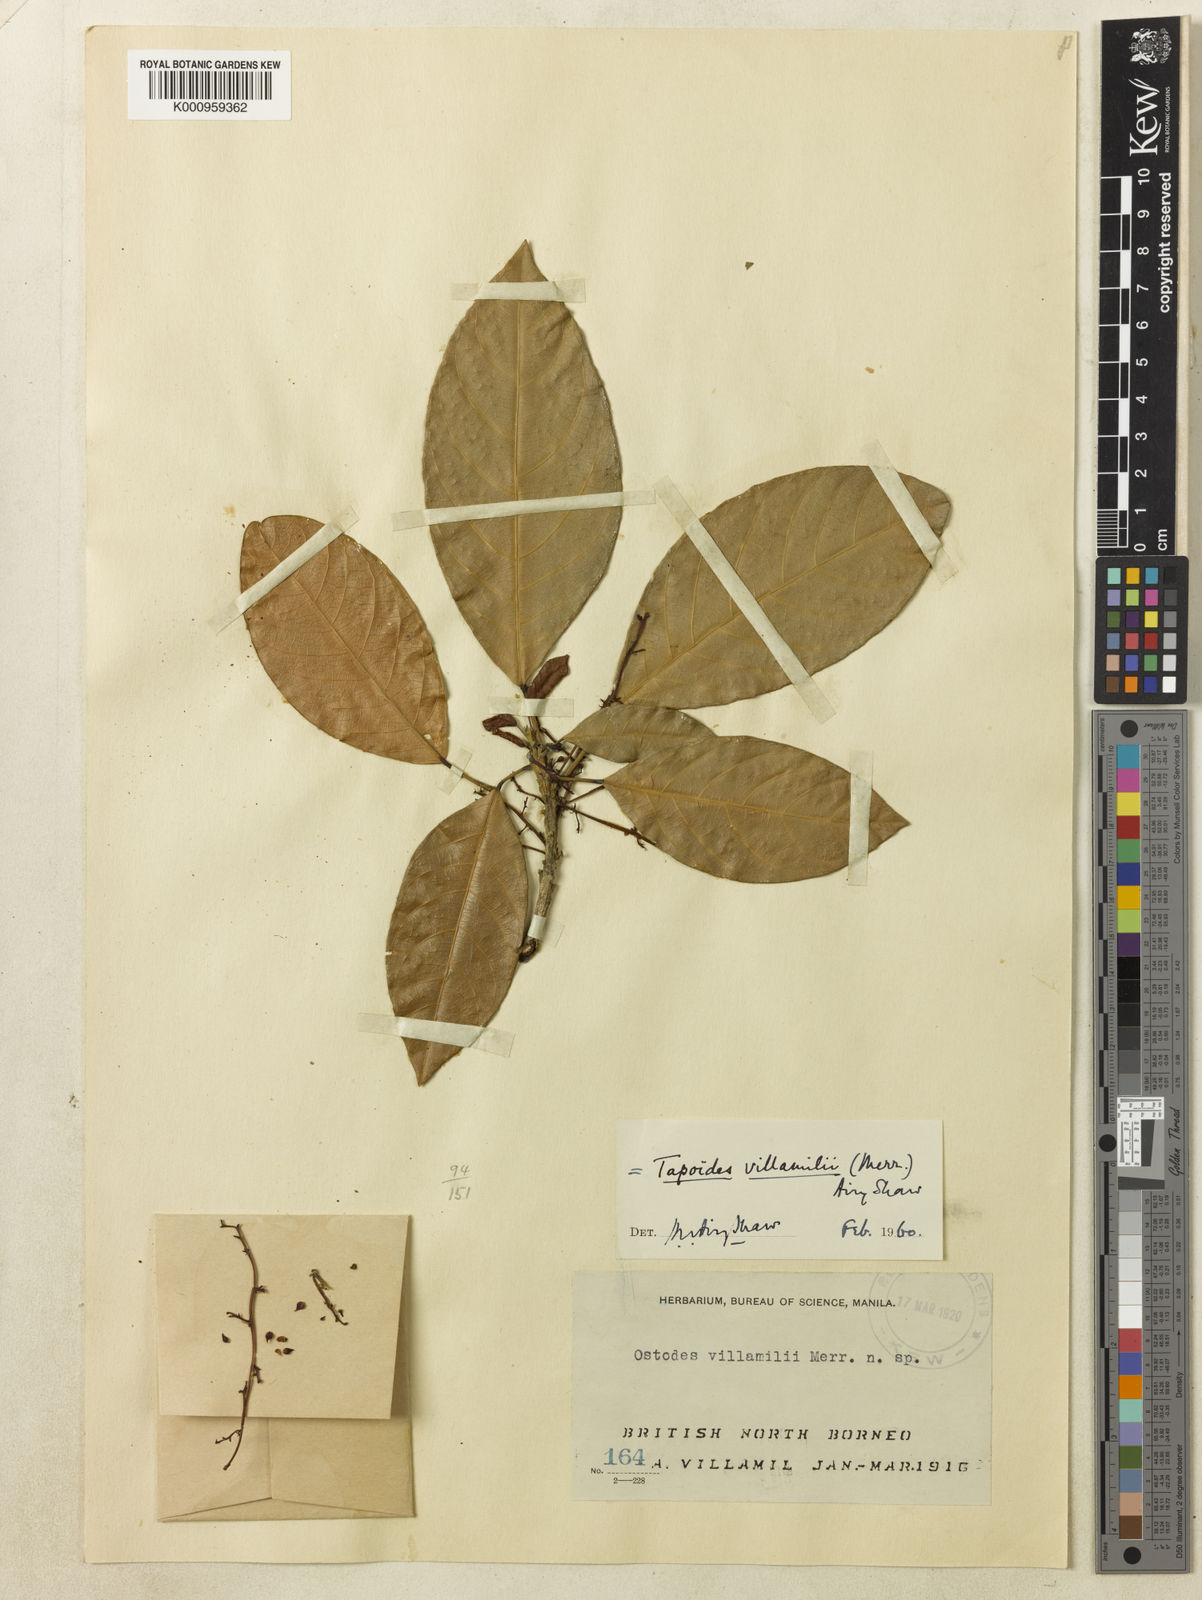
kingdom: Plantae
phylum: Tracheophyta
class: Magnoliopsida
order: Malpighiales
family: Euphorbiaceae
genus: Tapoides
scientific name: Tapoides villamilii
